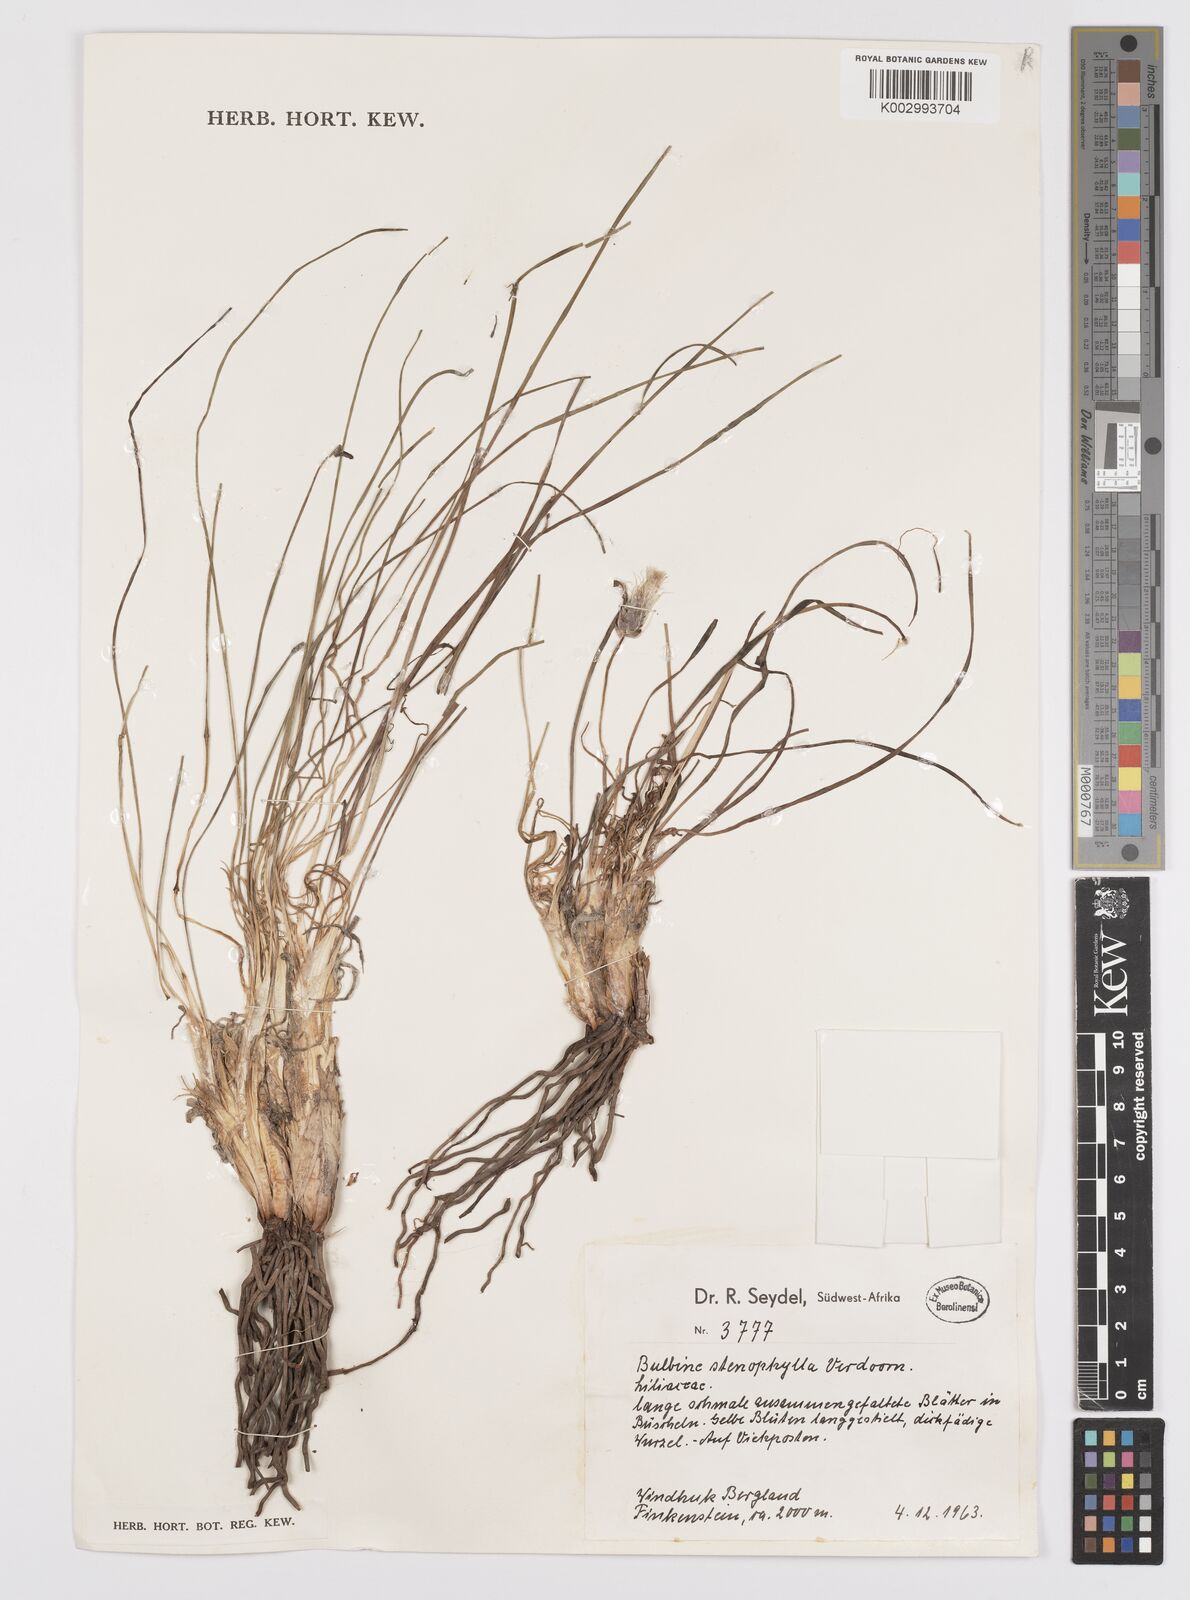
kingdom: Plantae
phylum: Tracheophyta
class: Liliopsida
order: Asparagales
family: Asphodelaceae
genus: Bulbine
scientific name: Bulbine capitata
